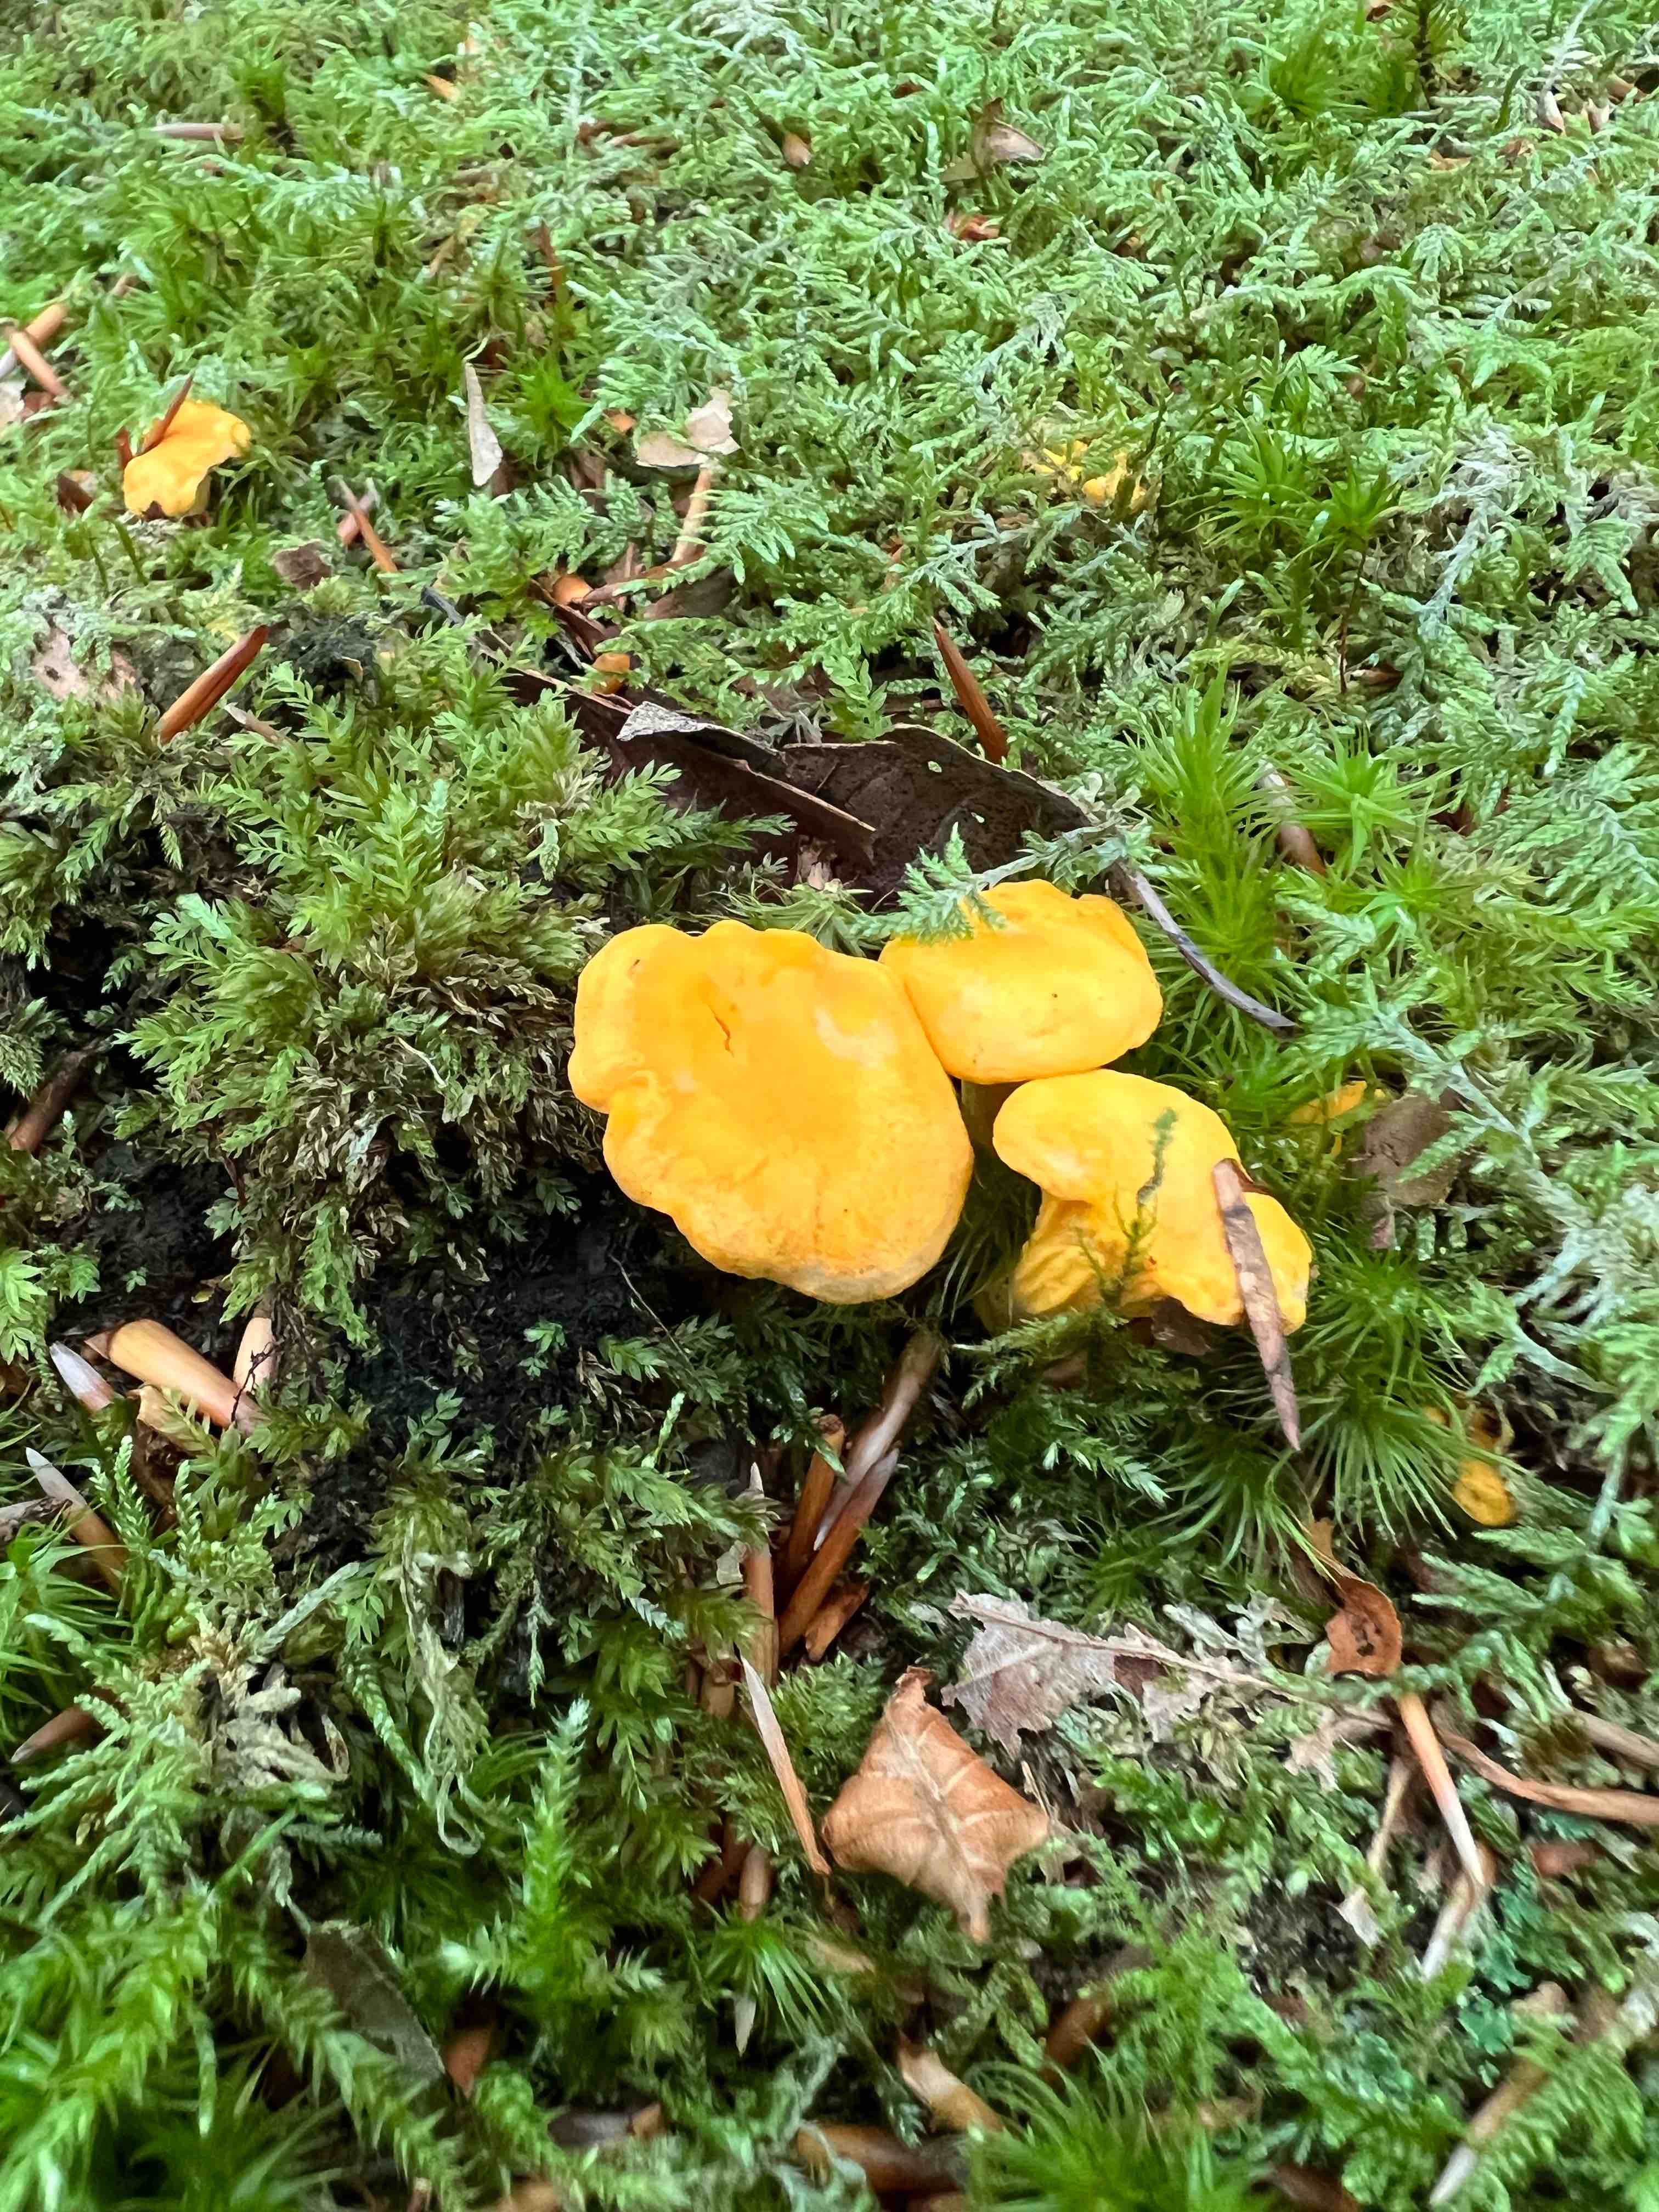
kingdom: Fungi
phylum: Basidiomycota
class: Agaricomycetes
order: Cantharellales
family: Hydnaceae
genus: Cantharellus
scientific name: Cantharellus cibarius
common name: almindelig kantarel
